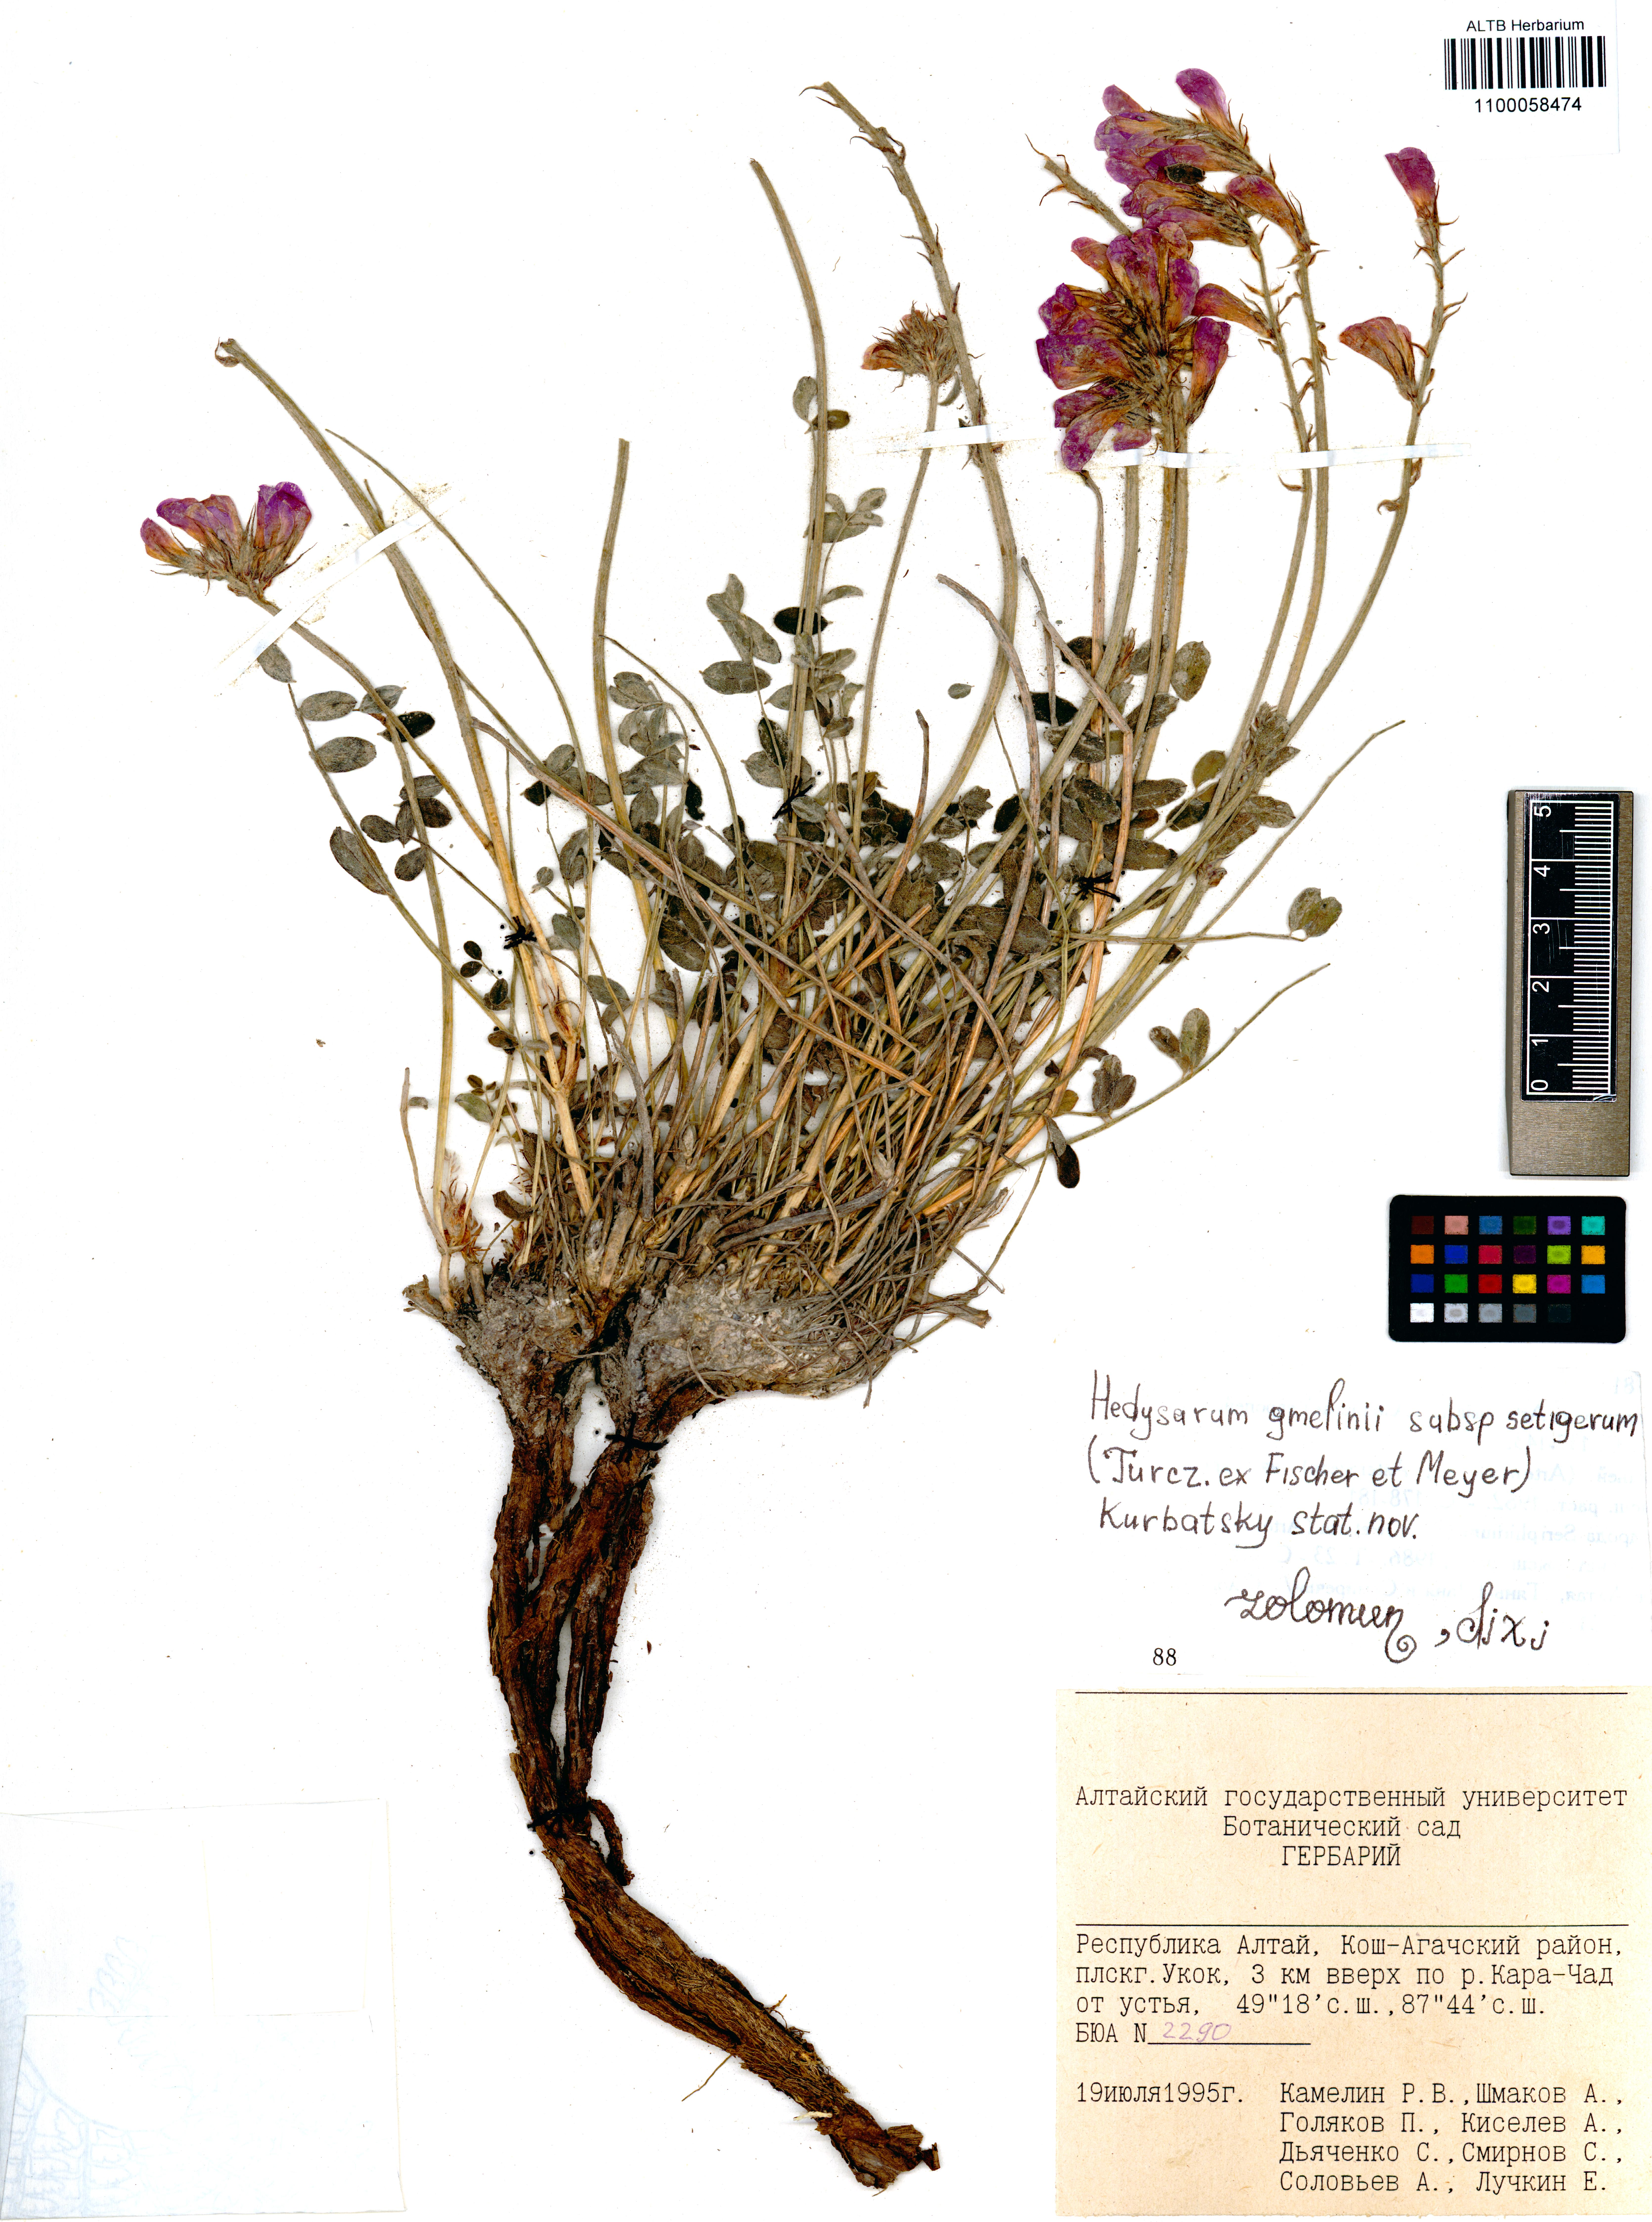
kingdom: Plantae
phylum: Tracheophyta
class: Magnoliopsida
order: Fabales
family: Fabaceae
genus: Hedysarum
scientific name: Hedysarum setigerum
